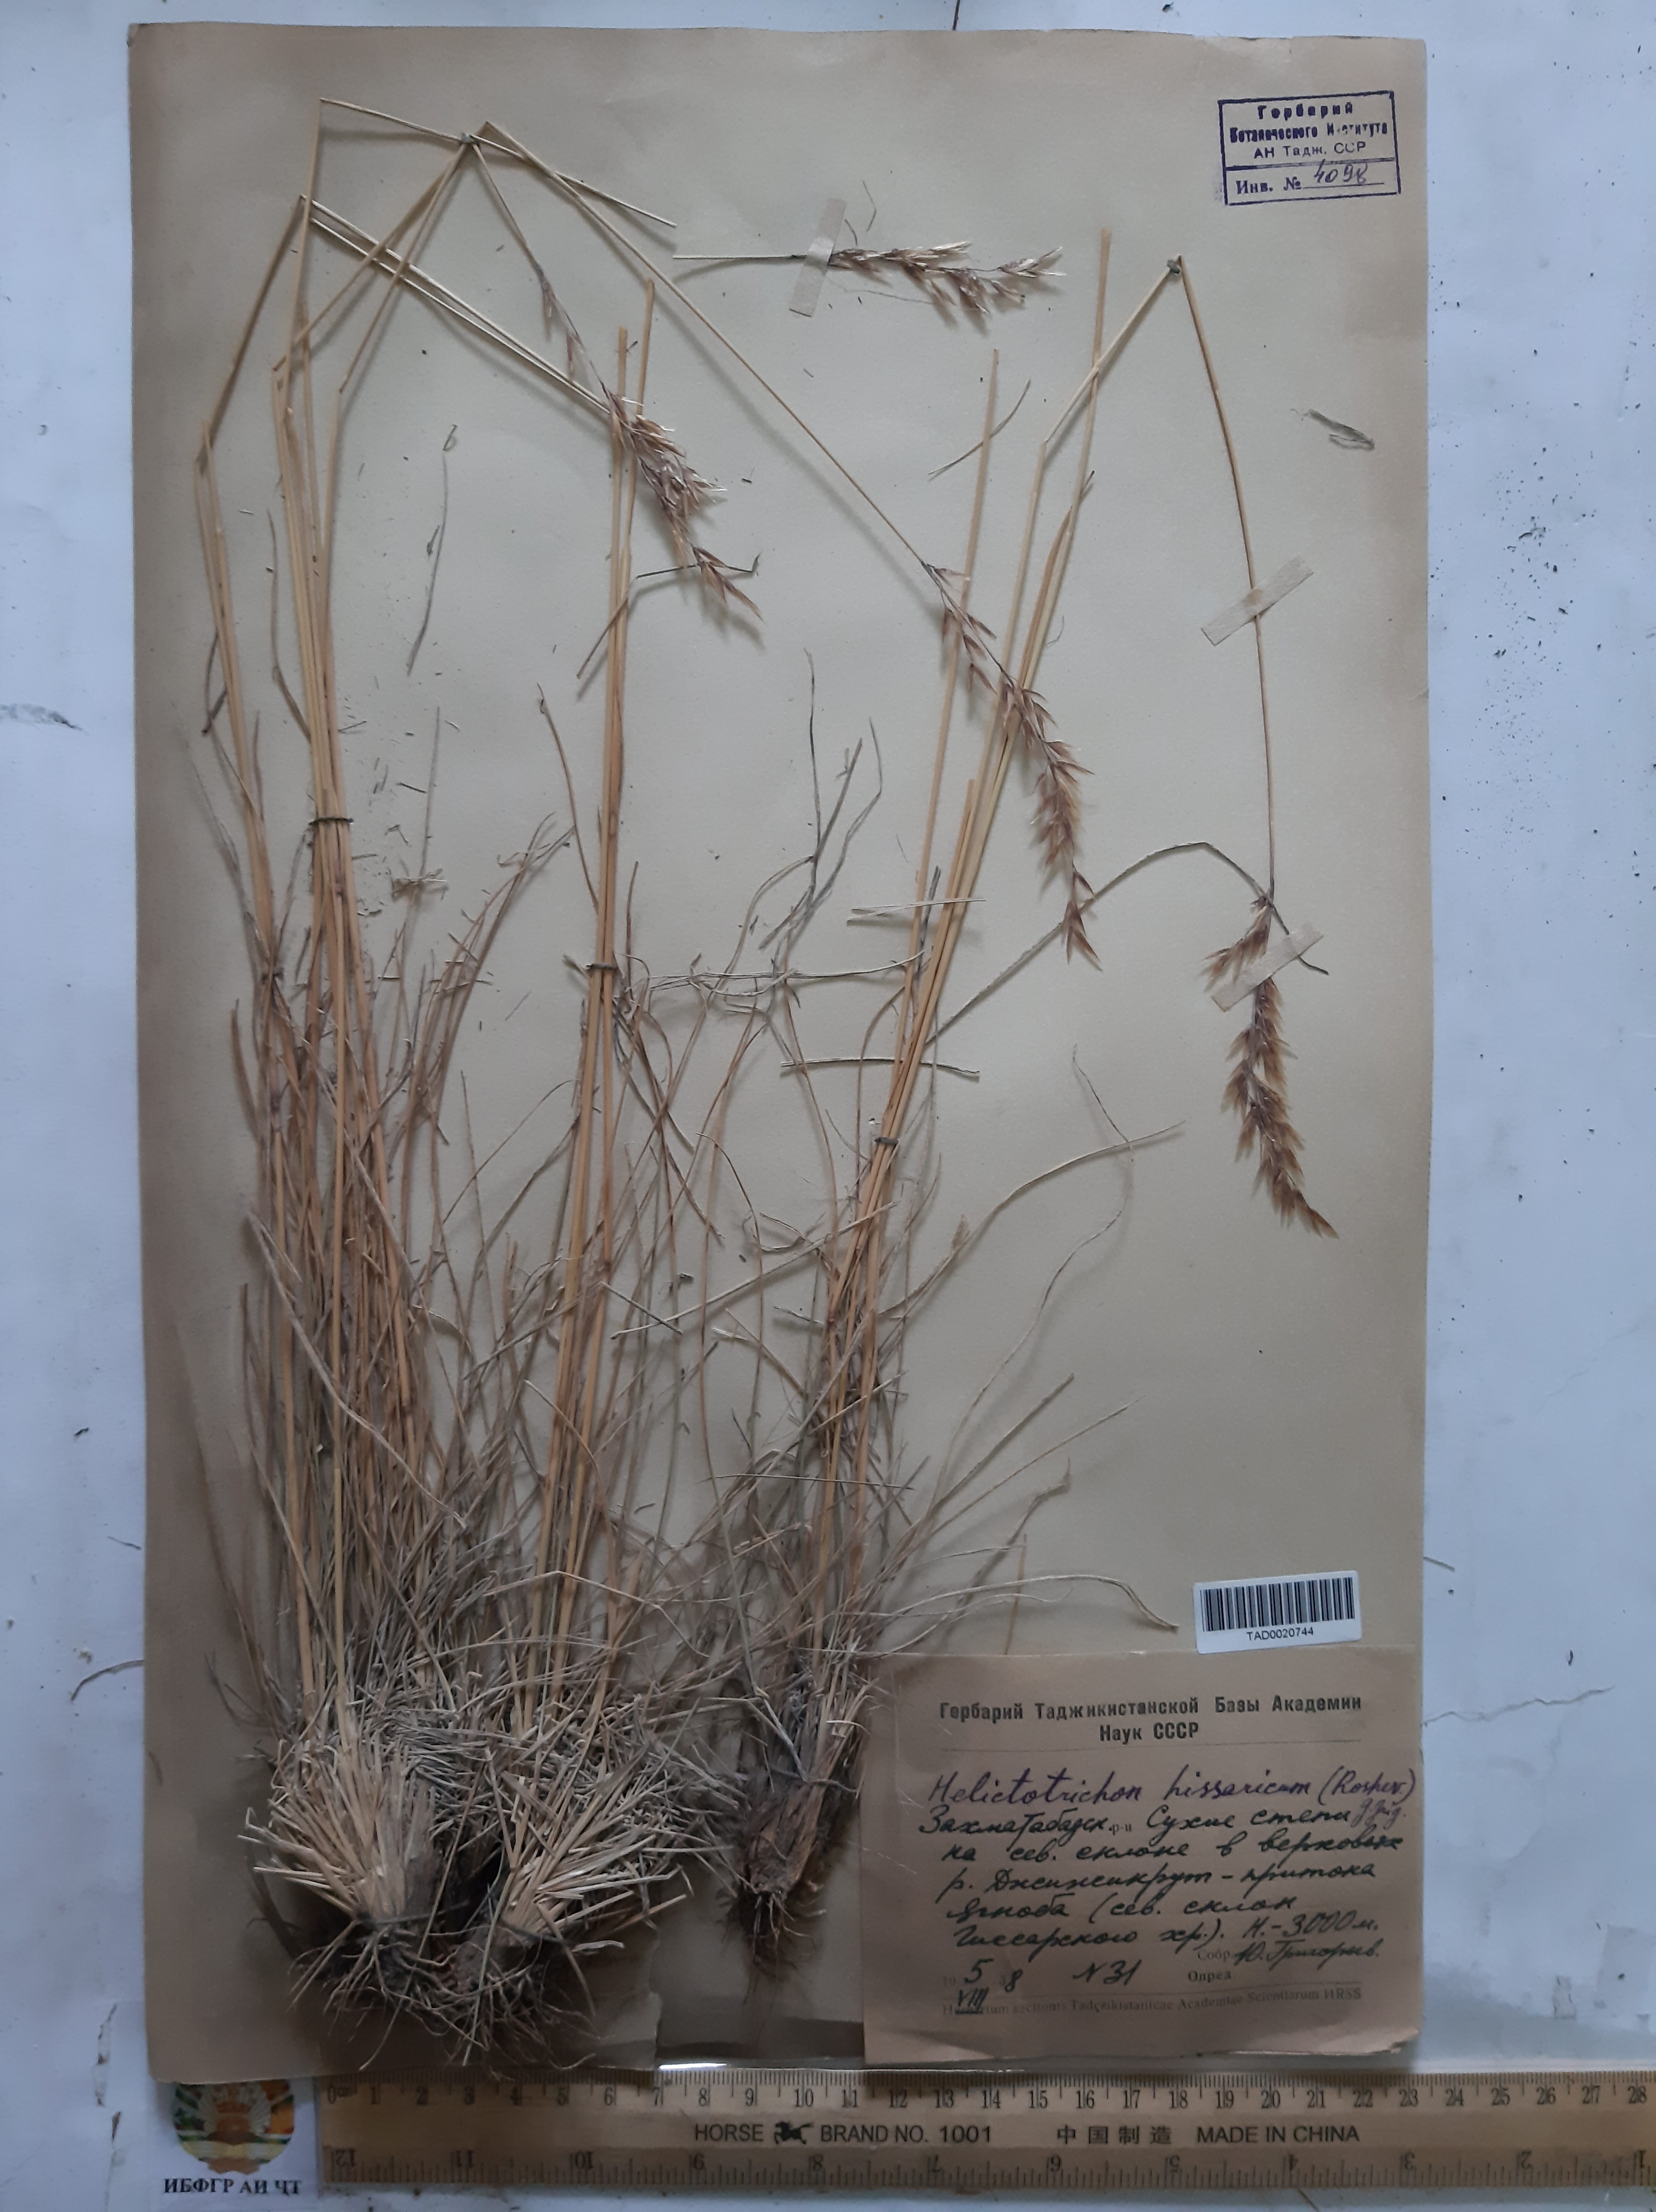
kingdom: Plantae
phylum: Tracheophyta
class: Liliopsida
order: Poales
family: Poaceae
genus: Helictotrichon
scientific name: Helictotrichon hissaricum
